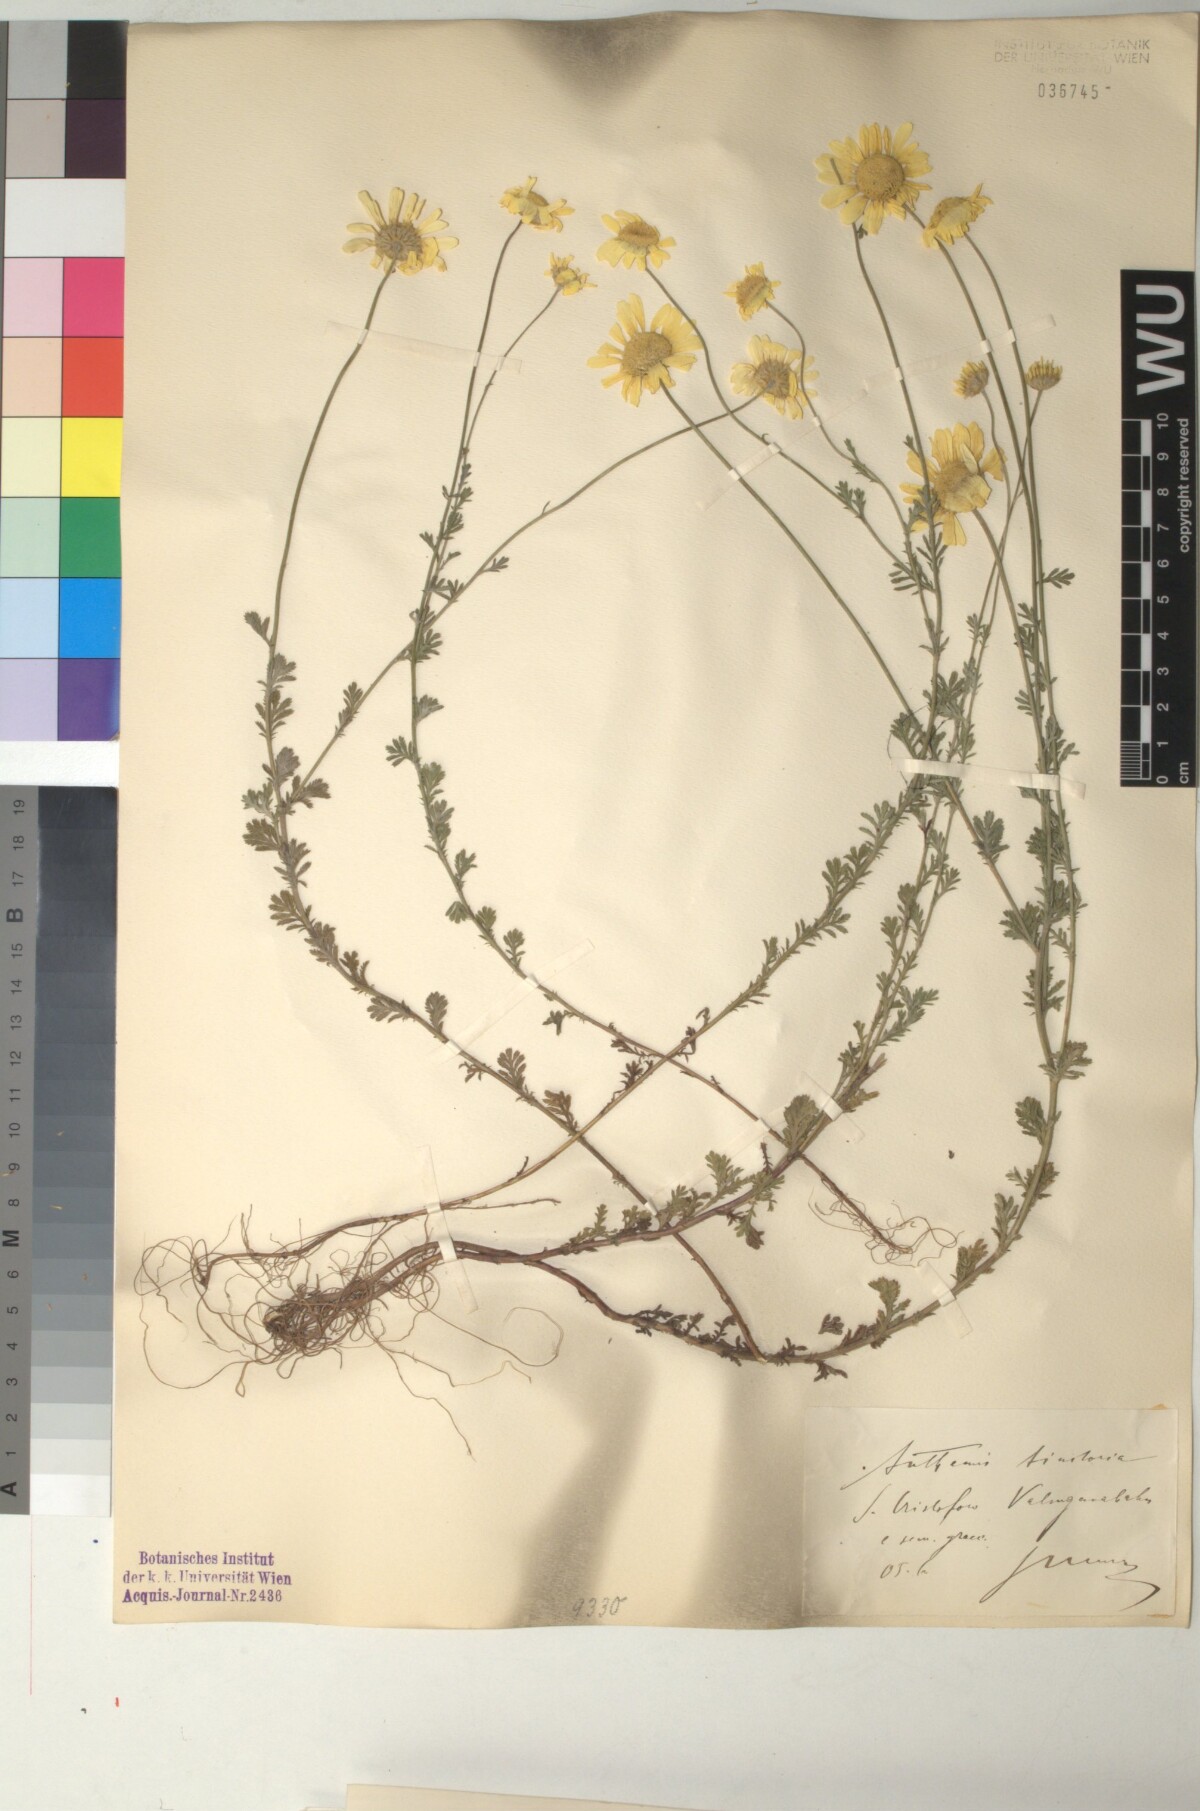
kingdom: Plantae
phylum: Tracheophyta
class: Magnoliopsida
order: Asterales
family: Asteraceae
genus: Cota
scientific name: Cota tinctoria
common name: Golden chamomile
